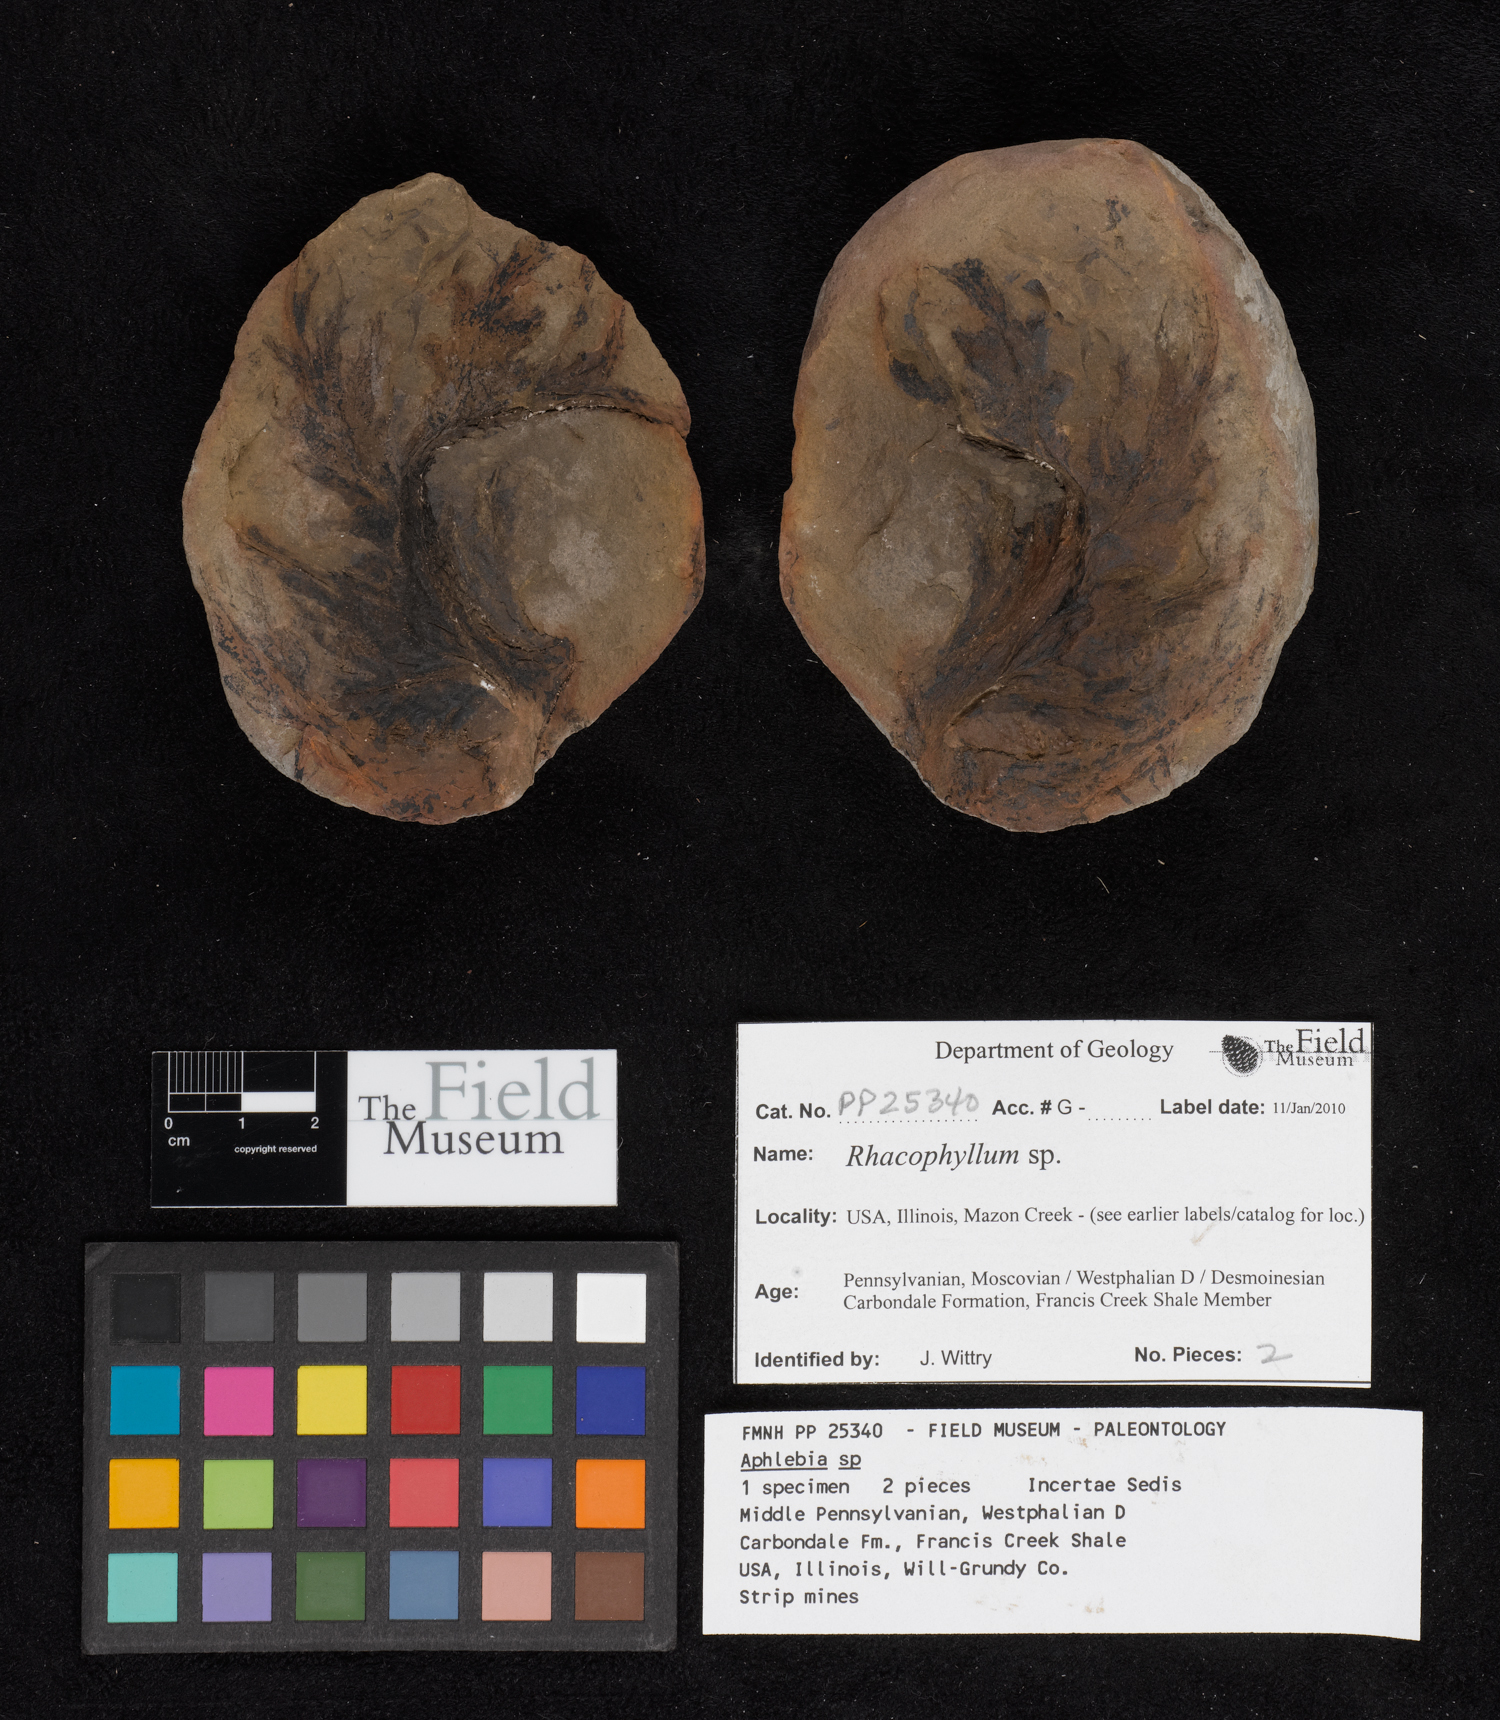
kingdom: Plantae
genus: Rhacophyllum
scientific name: Rhacophyllum
